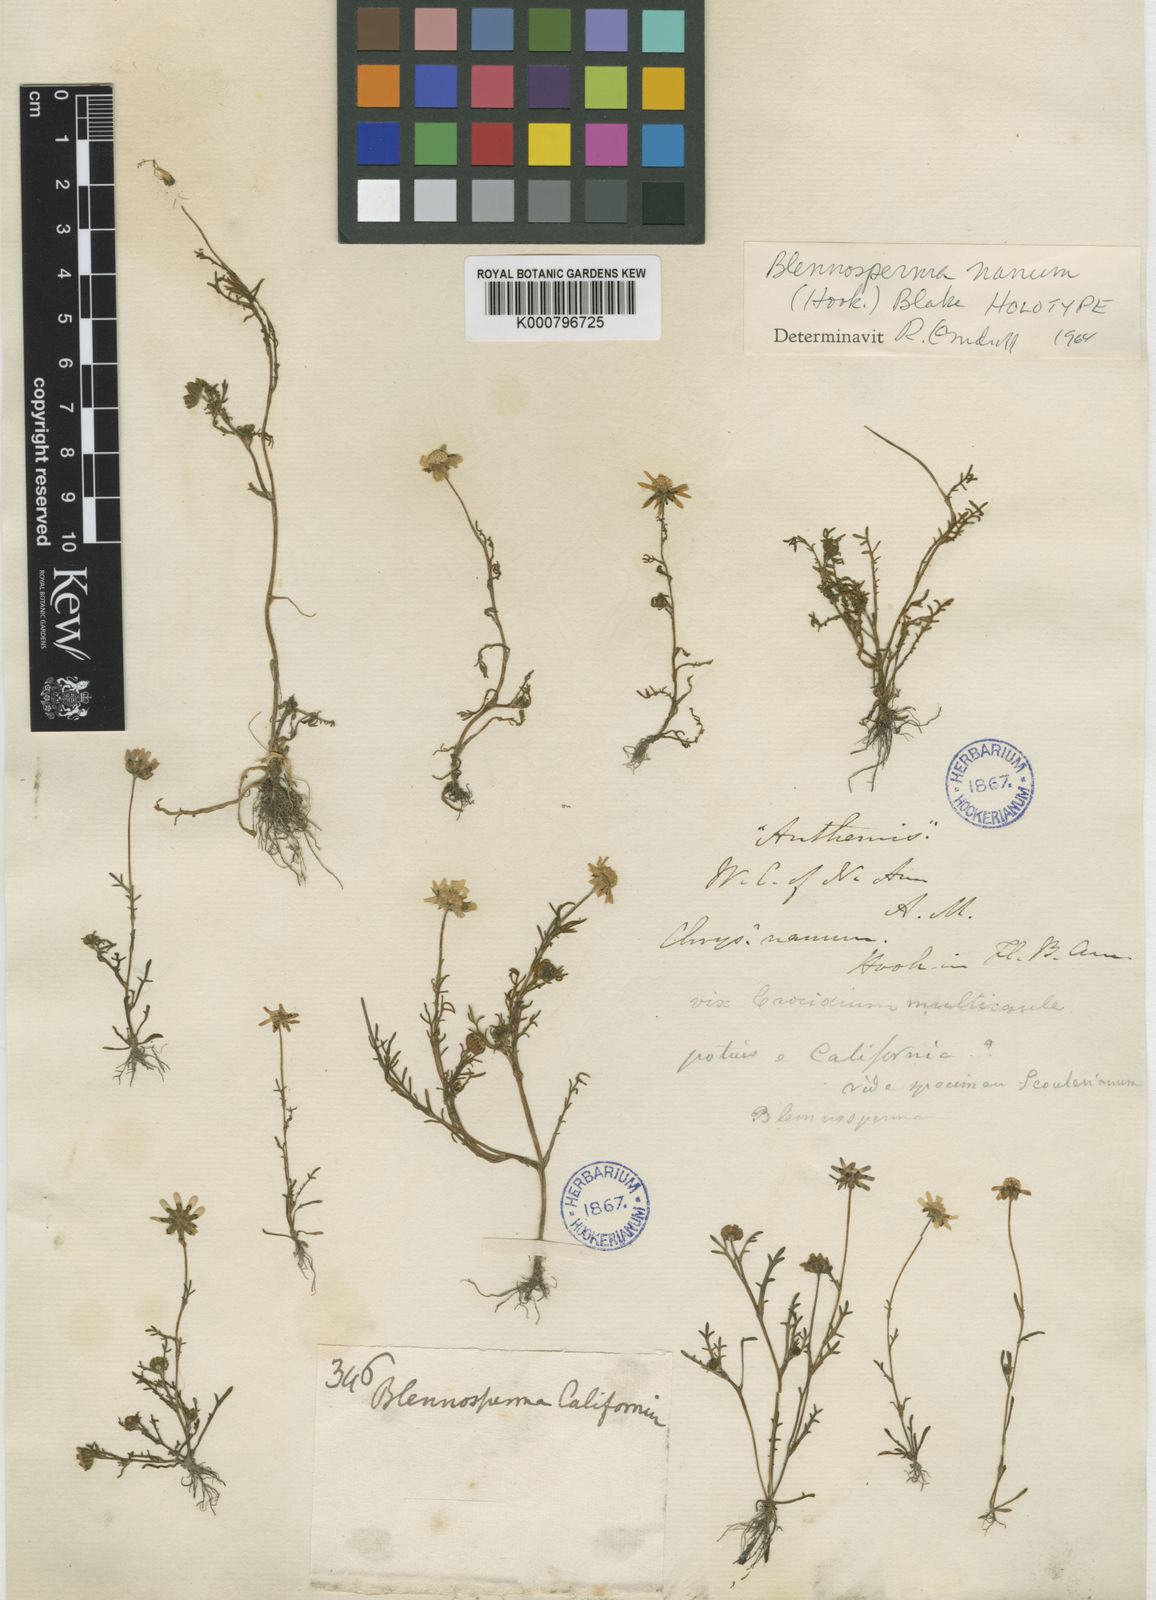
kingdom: Plantae
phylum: Tracheophyta
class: Magnoliopsida
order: Asterales
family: Asteraceae
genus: Blennosperma
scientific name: Blennosperma nanum
